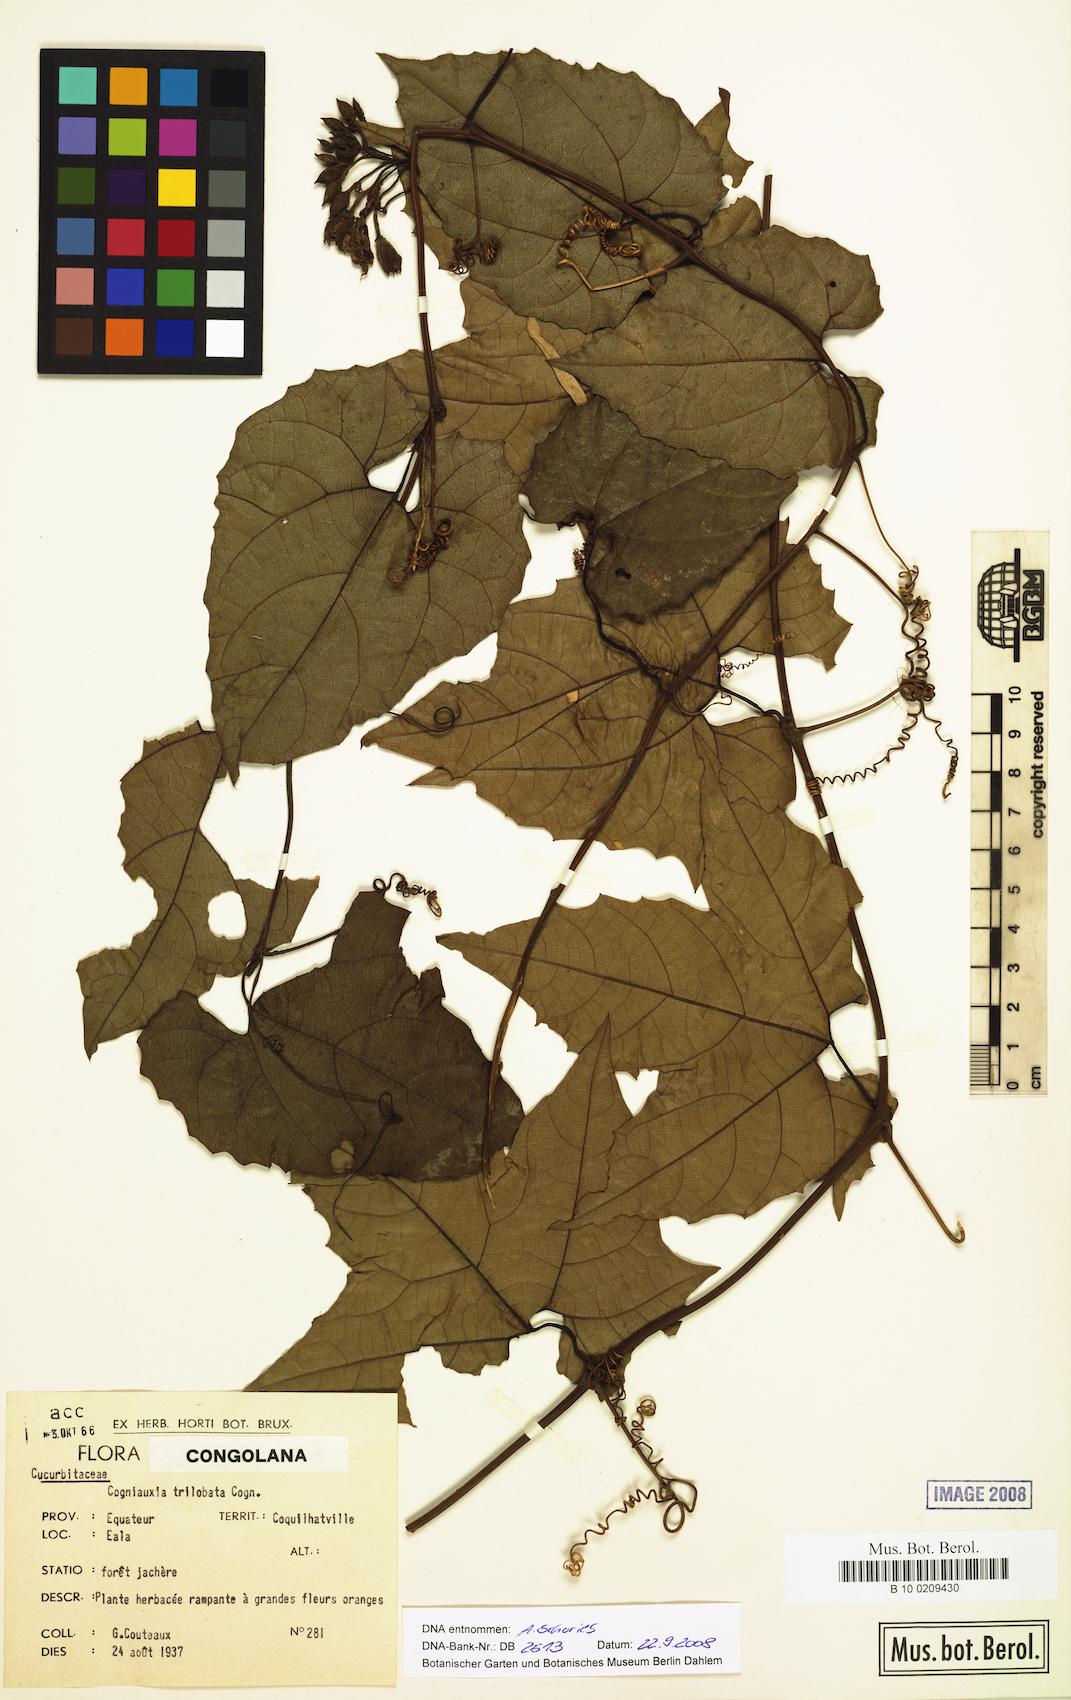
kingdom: Plantae
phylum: Tracheophyta
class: Magnoliopsida
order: Cucurbitales
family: Cucurbitaceae
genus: Cogniauxia
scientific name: Cogniauxia trilobata
